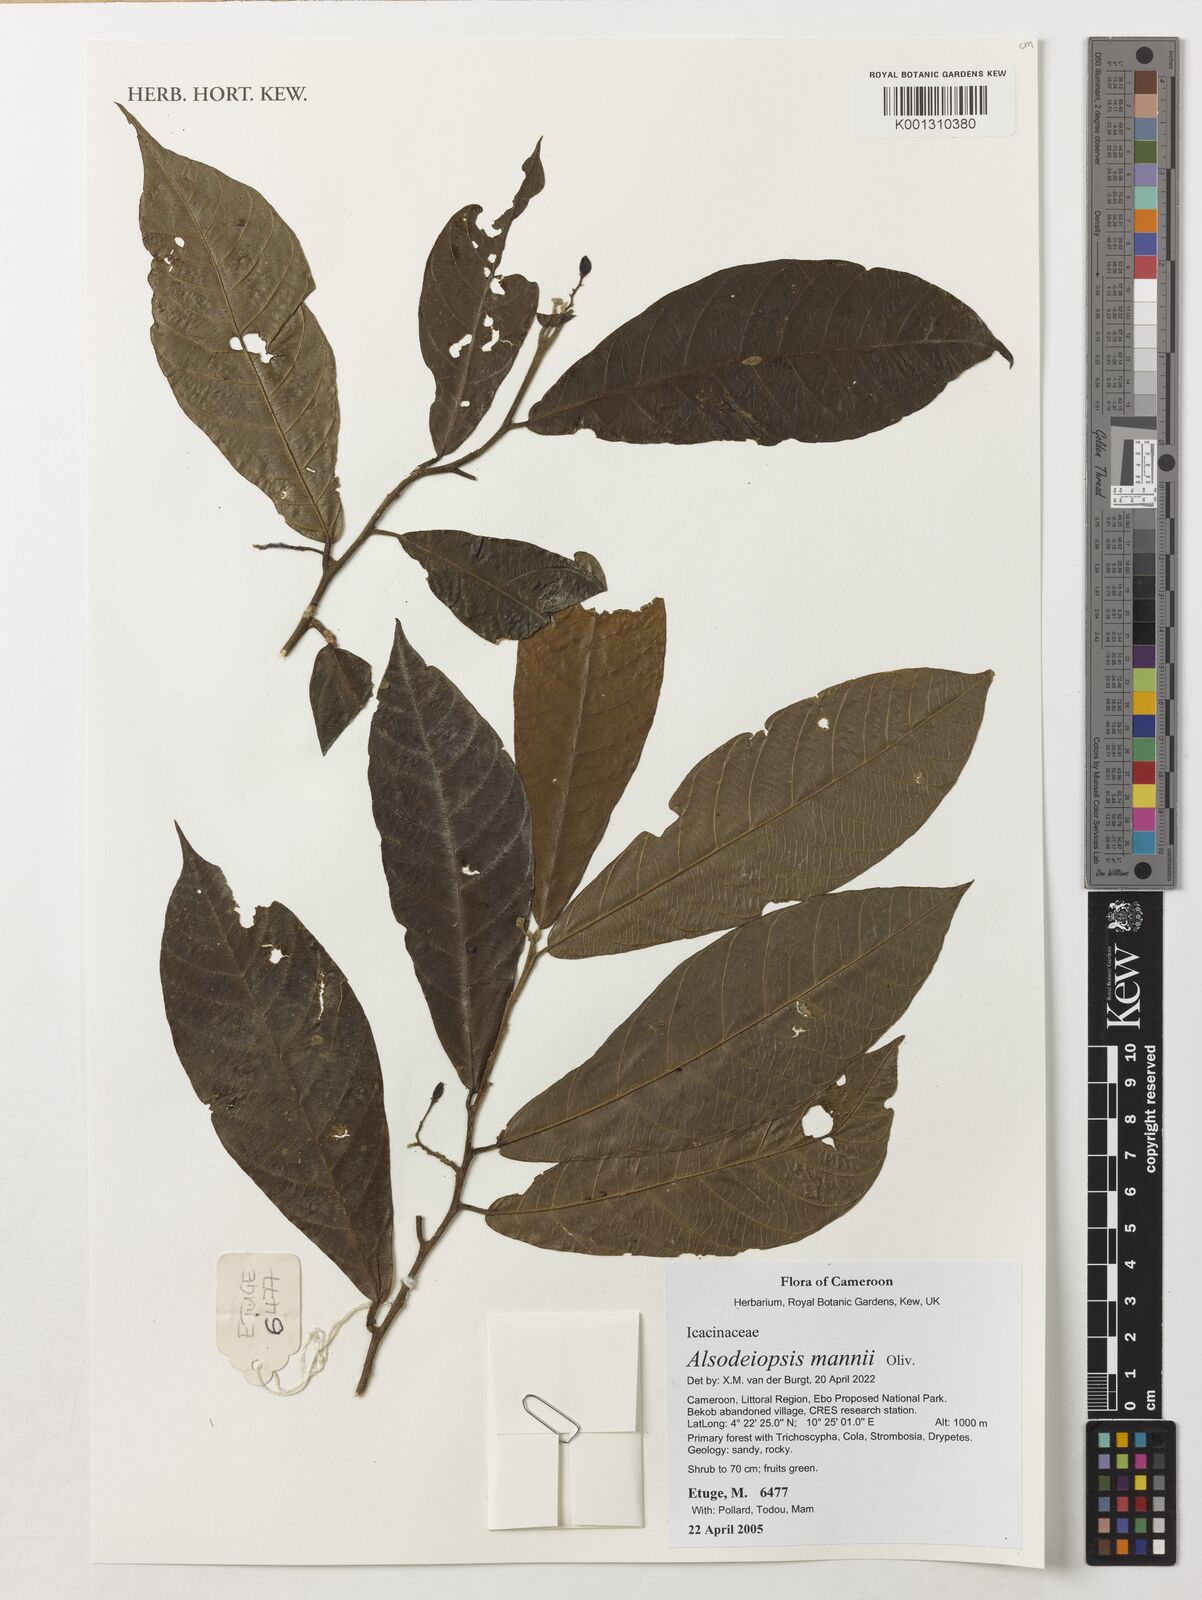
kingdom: Plantae
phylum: Tracheophyta
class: Magnoliopsida
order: Icacinales
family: Icacinaceae
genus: Alsodeiopsis
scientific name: Alsodeiopsis mannii
